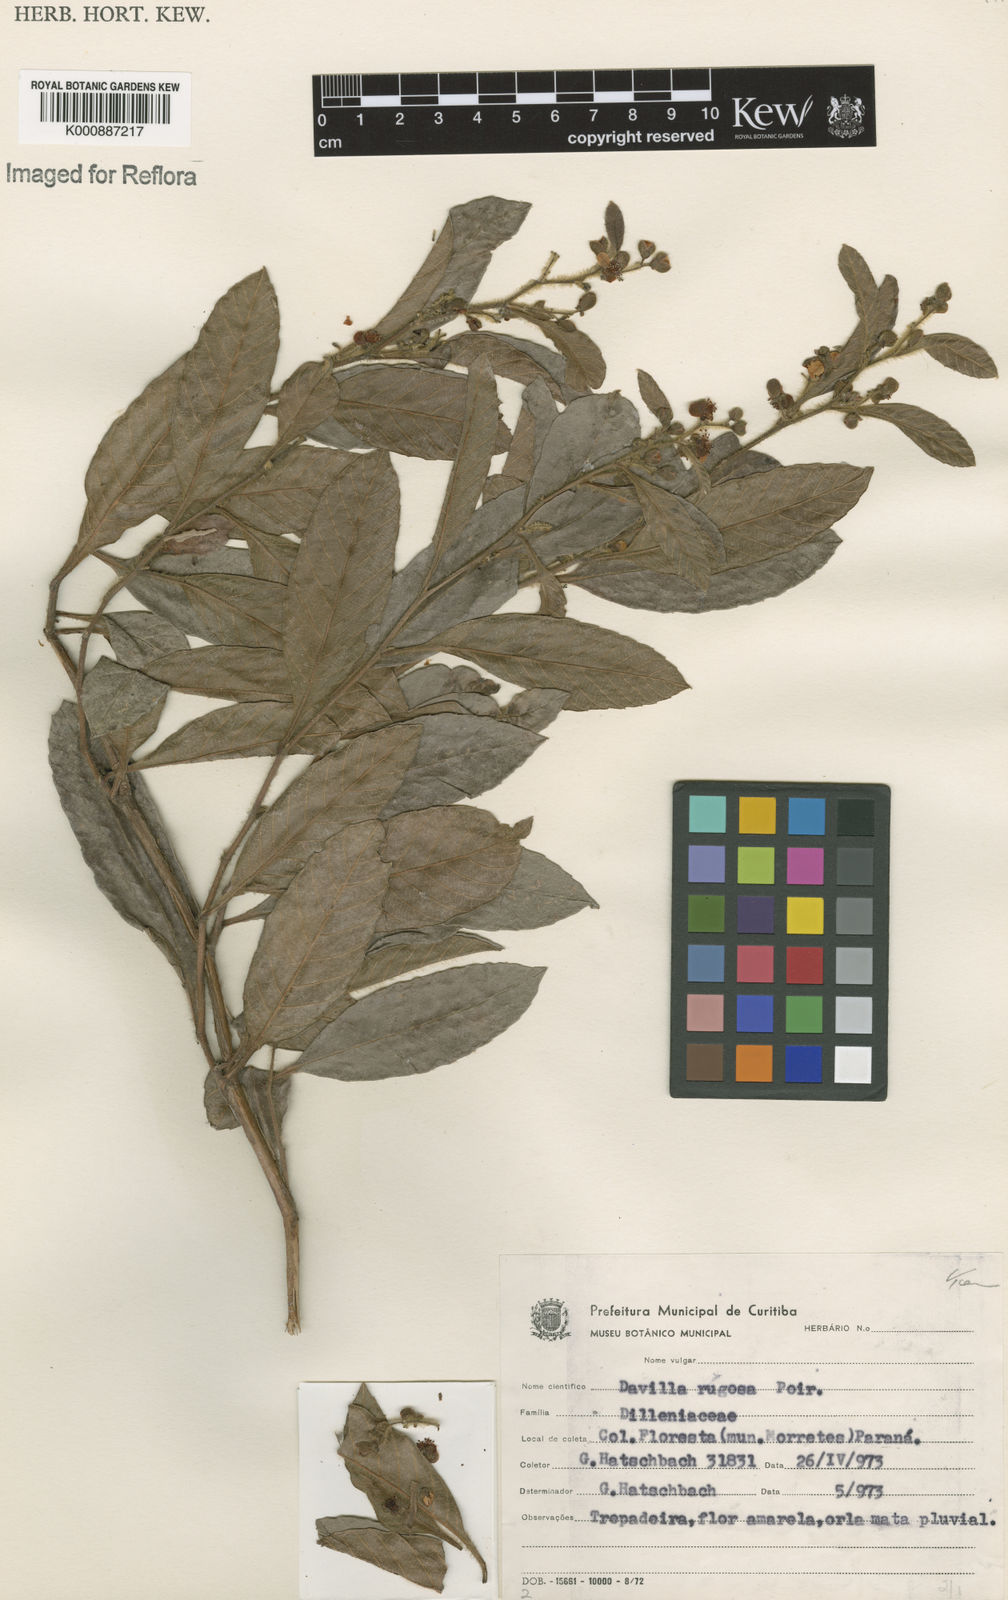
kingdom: Plantae
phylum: Tracheophyta
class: Magnoliopsida
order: Dilleniales
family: Dilleniaceae
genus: Davilla
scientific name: Davilla rugosa
